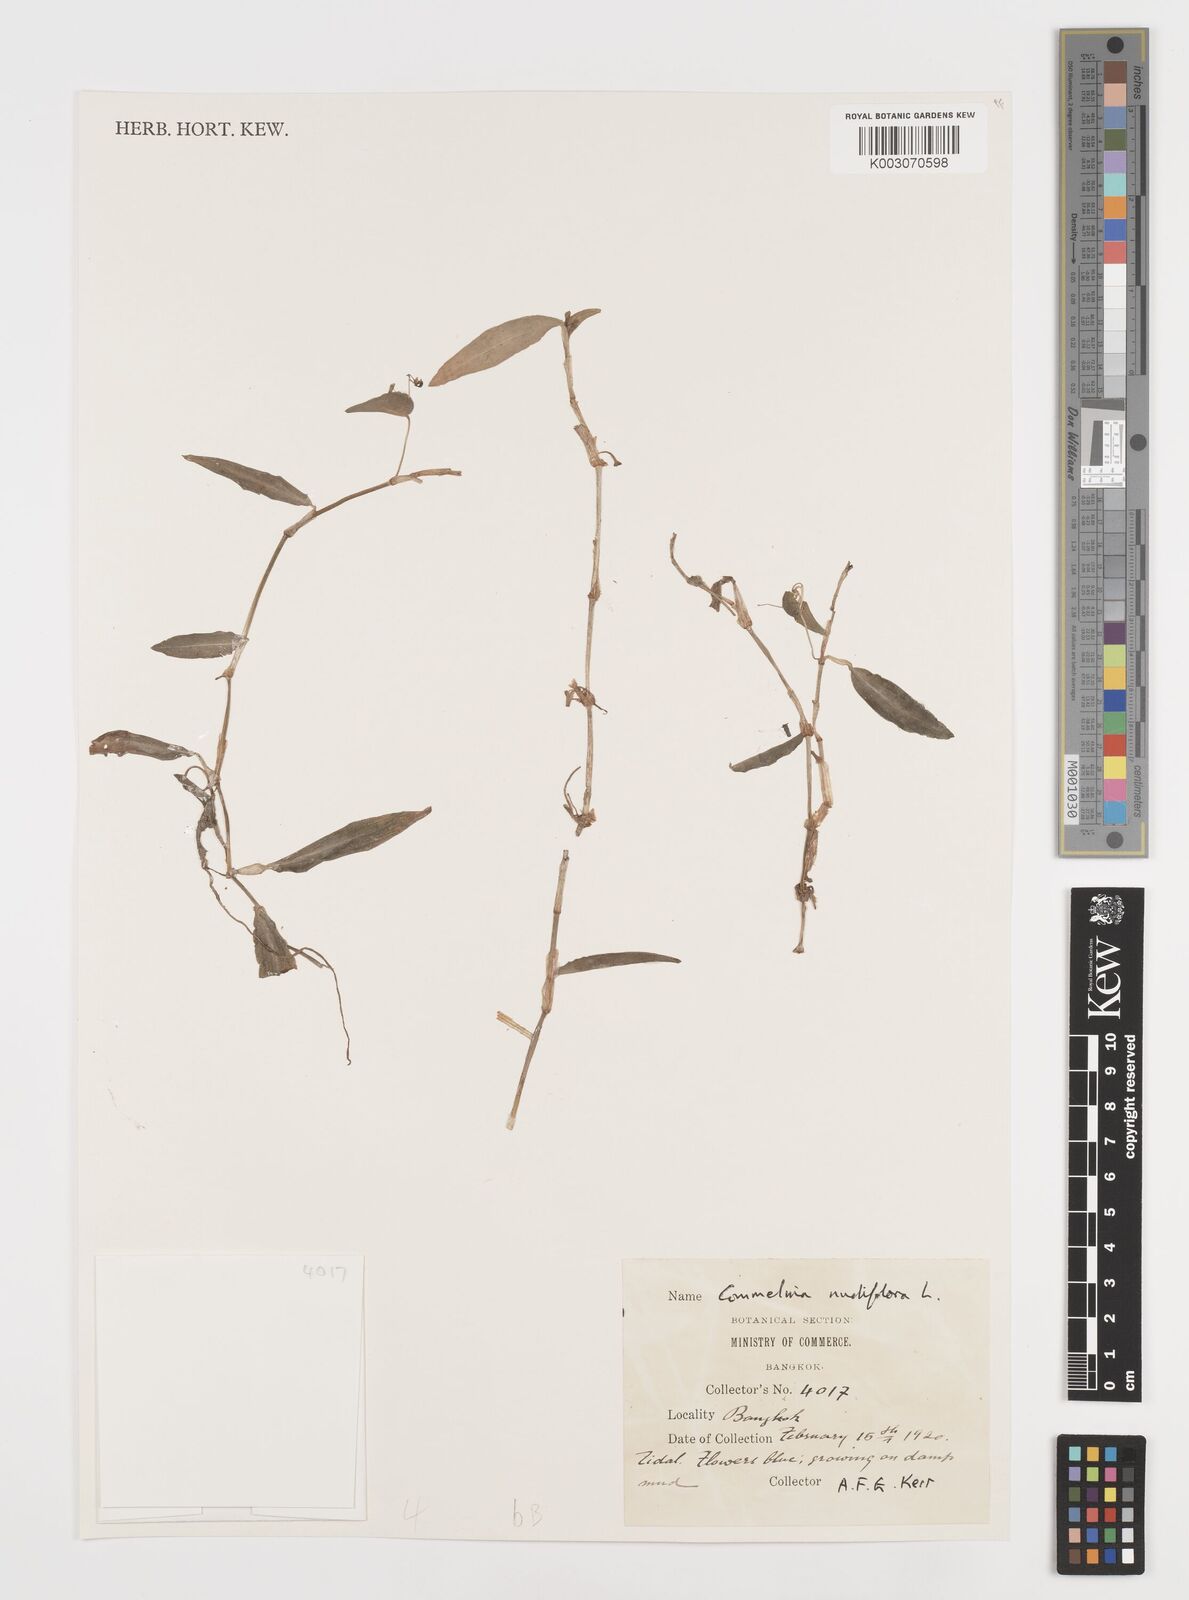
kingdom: Plantae
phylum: Tracheophyta
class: Liliopsida
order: Commelinales
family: Commelinaceae
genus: Commelina
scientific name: Commelina clavata
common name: Willow leaved dayflower
